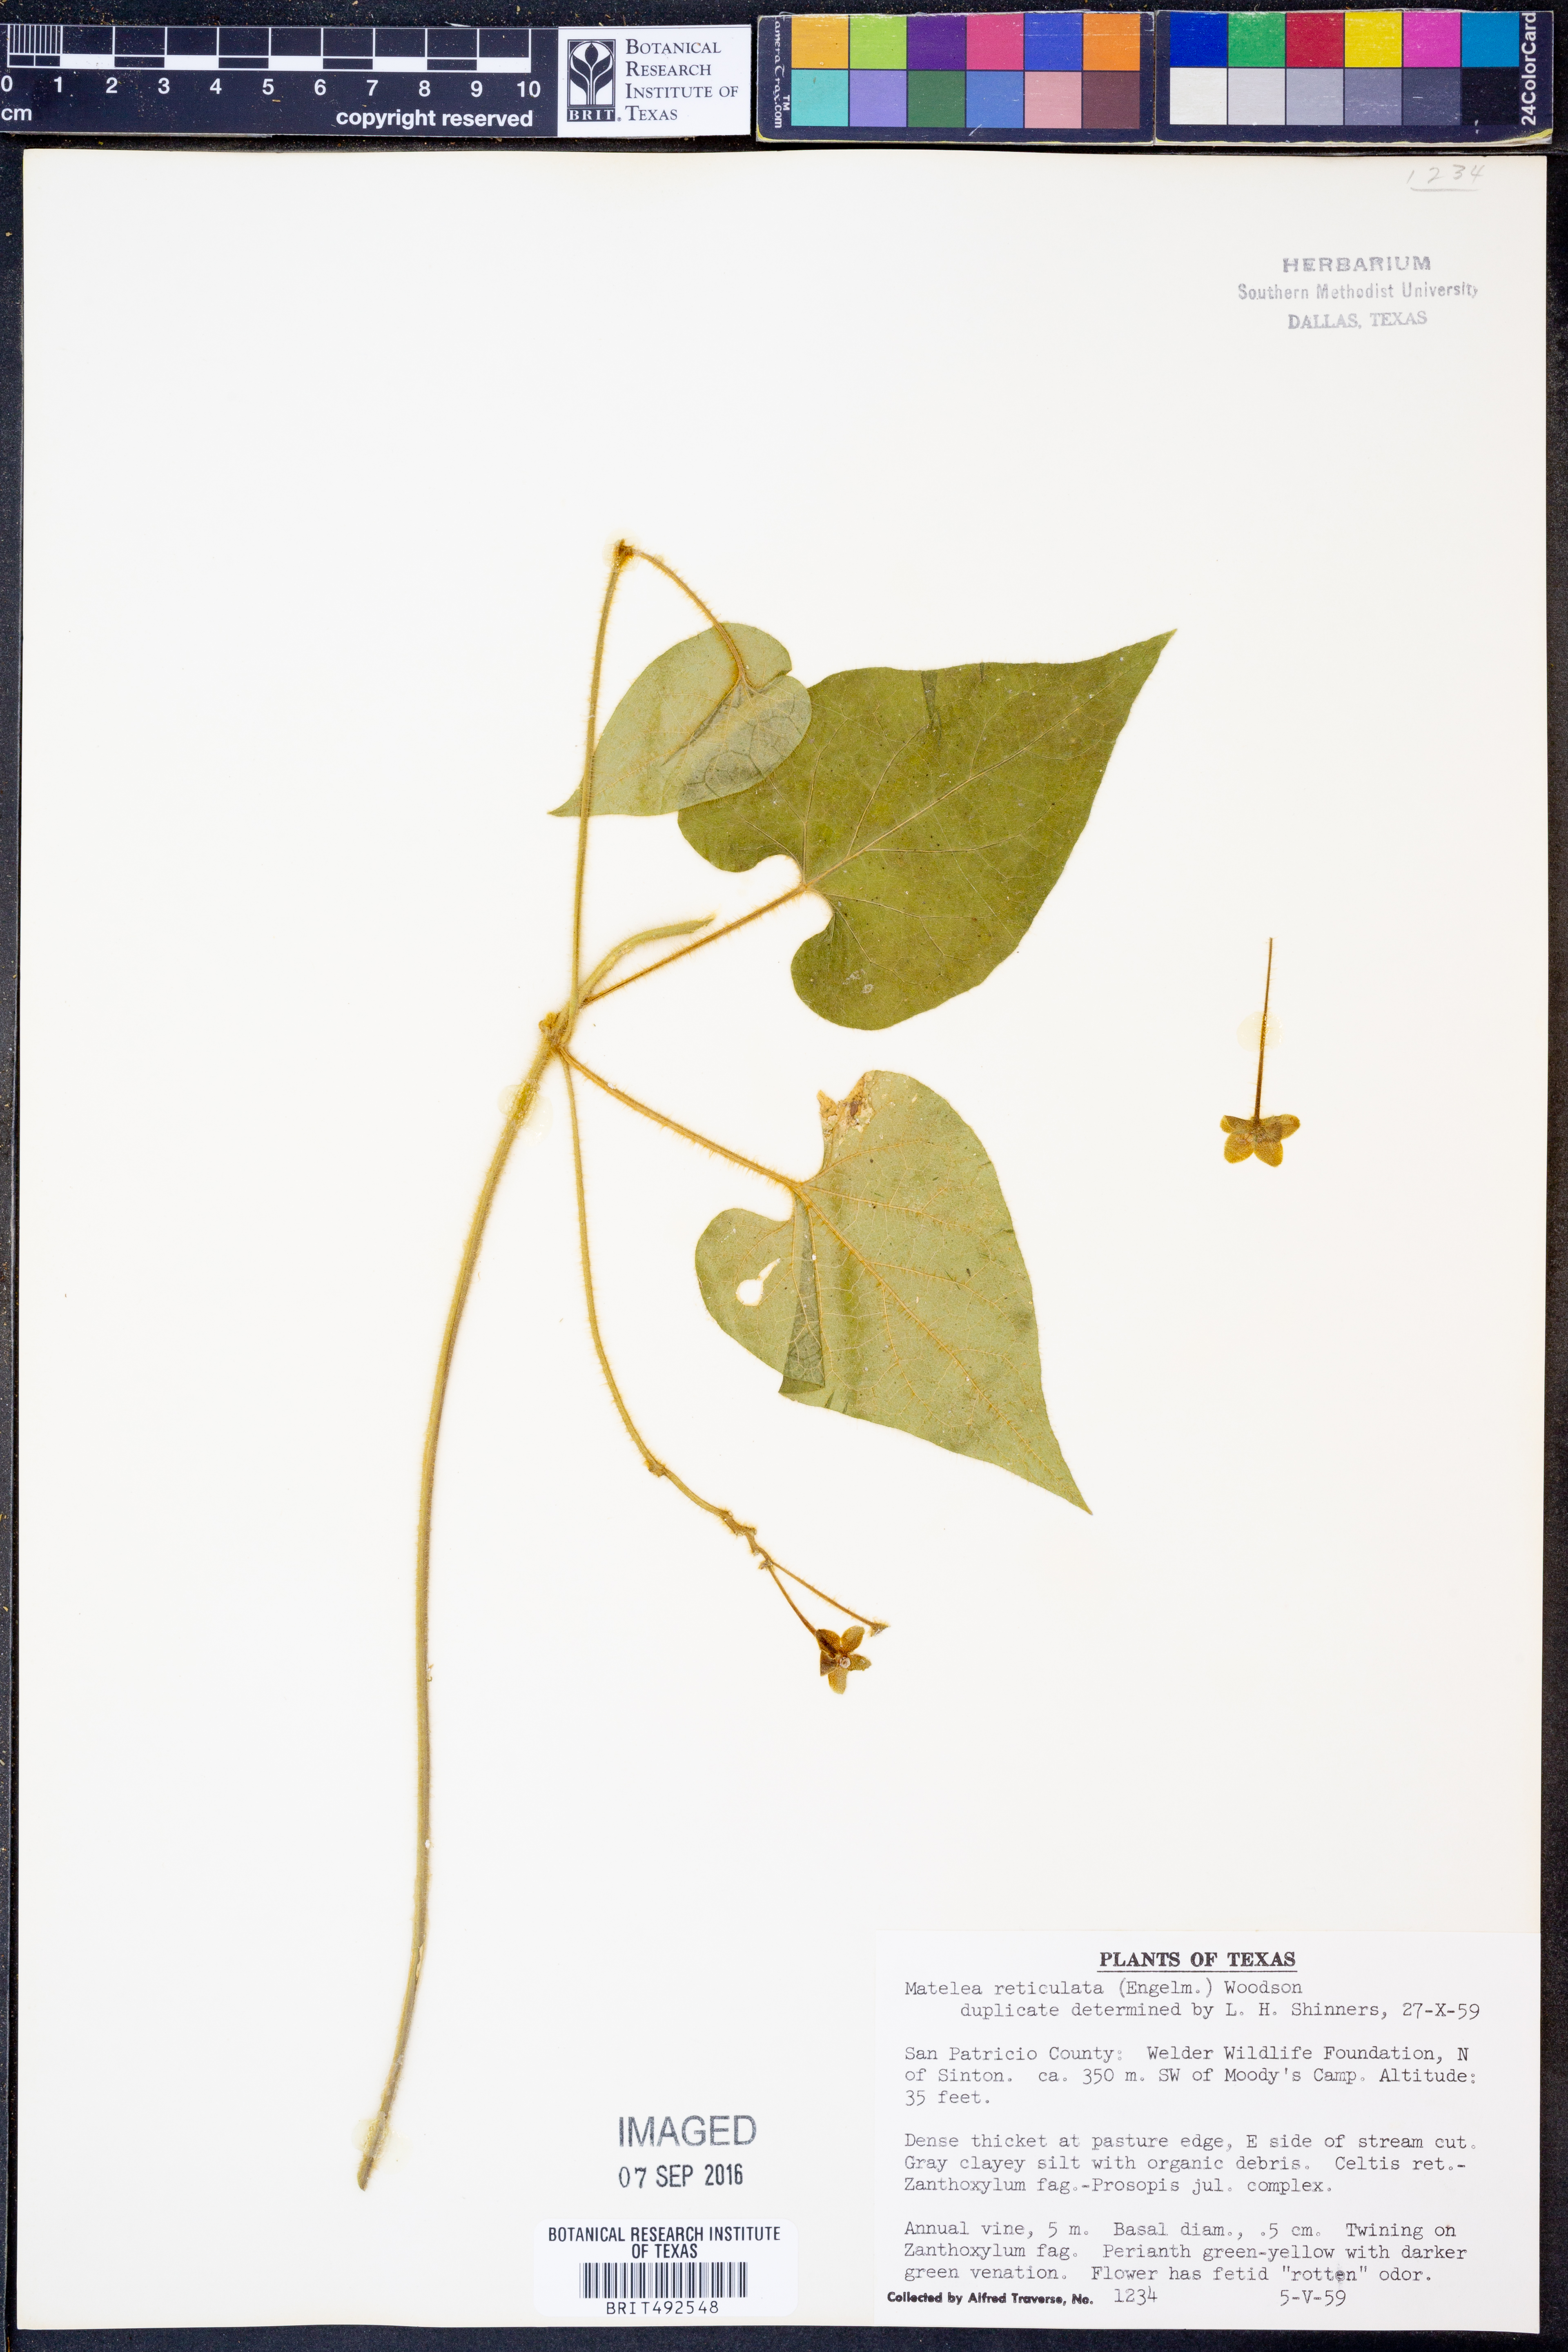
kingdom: Plantae
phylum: Tracheophyta
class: Magnoliopsida
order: Gentianales
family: Apocynaceae
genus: Dictyanthus
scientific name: Dictyanthus reticulatus
